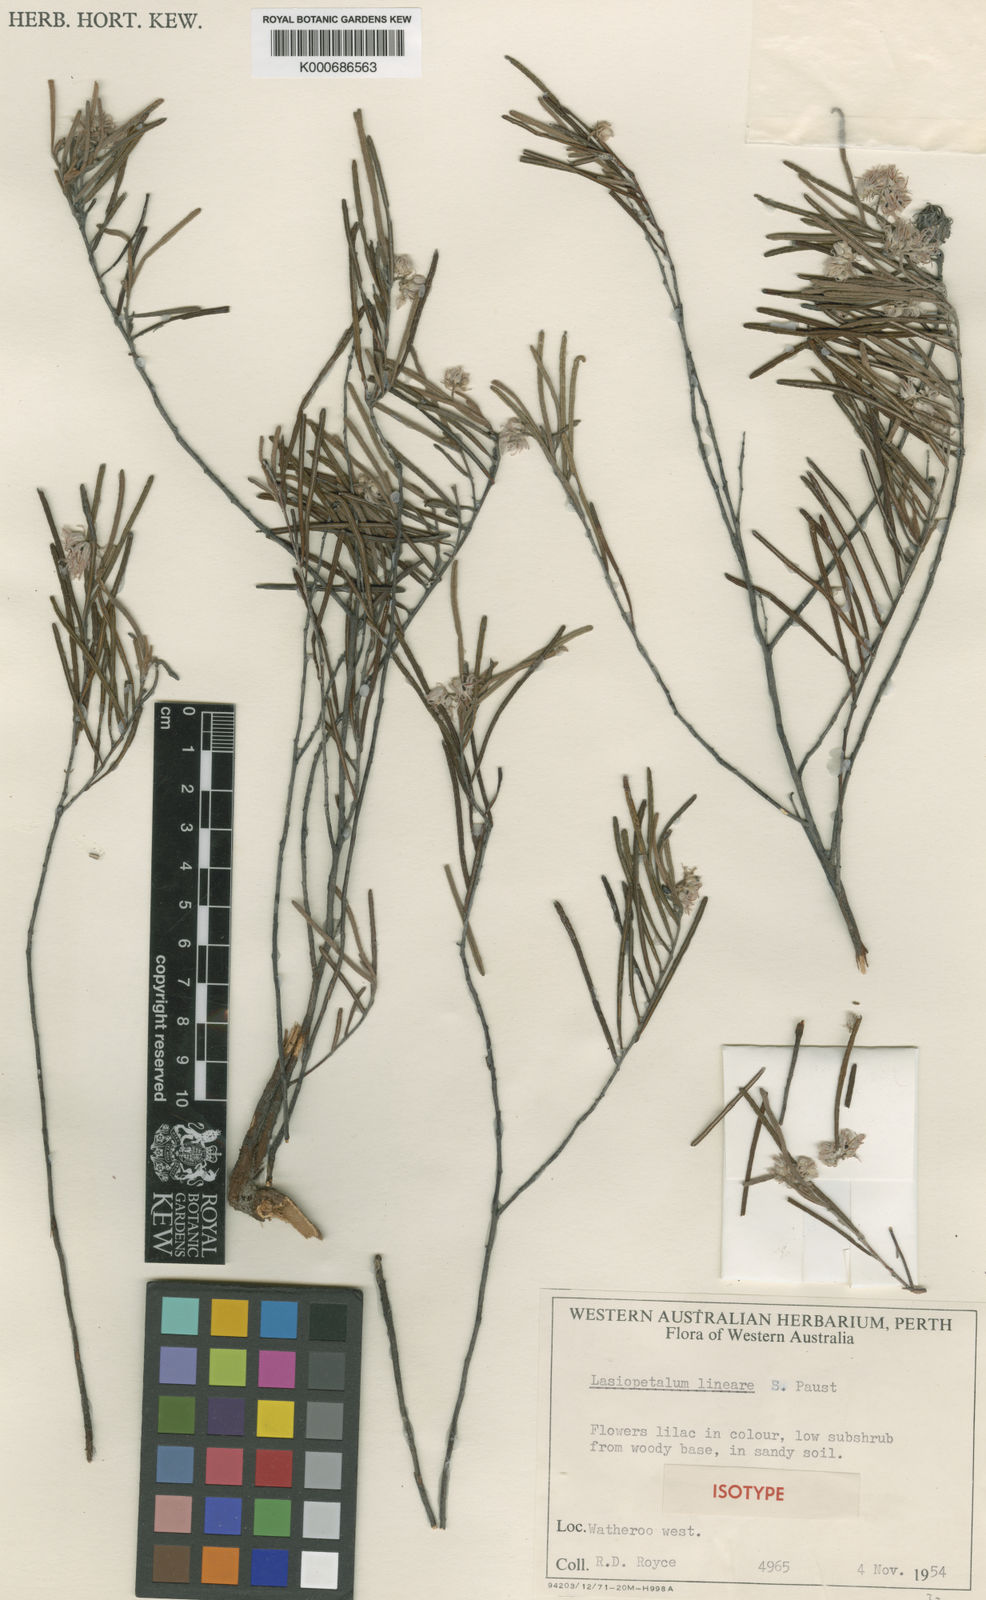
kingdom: Plantae
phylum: Tracheophyta
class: Magnoliopsida
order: Malvales
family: Malvaceae
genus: Lasiopetalum
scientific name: Lasiopetalum lineare
